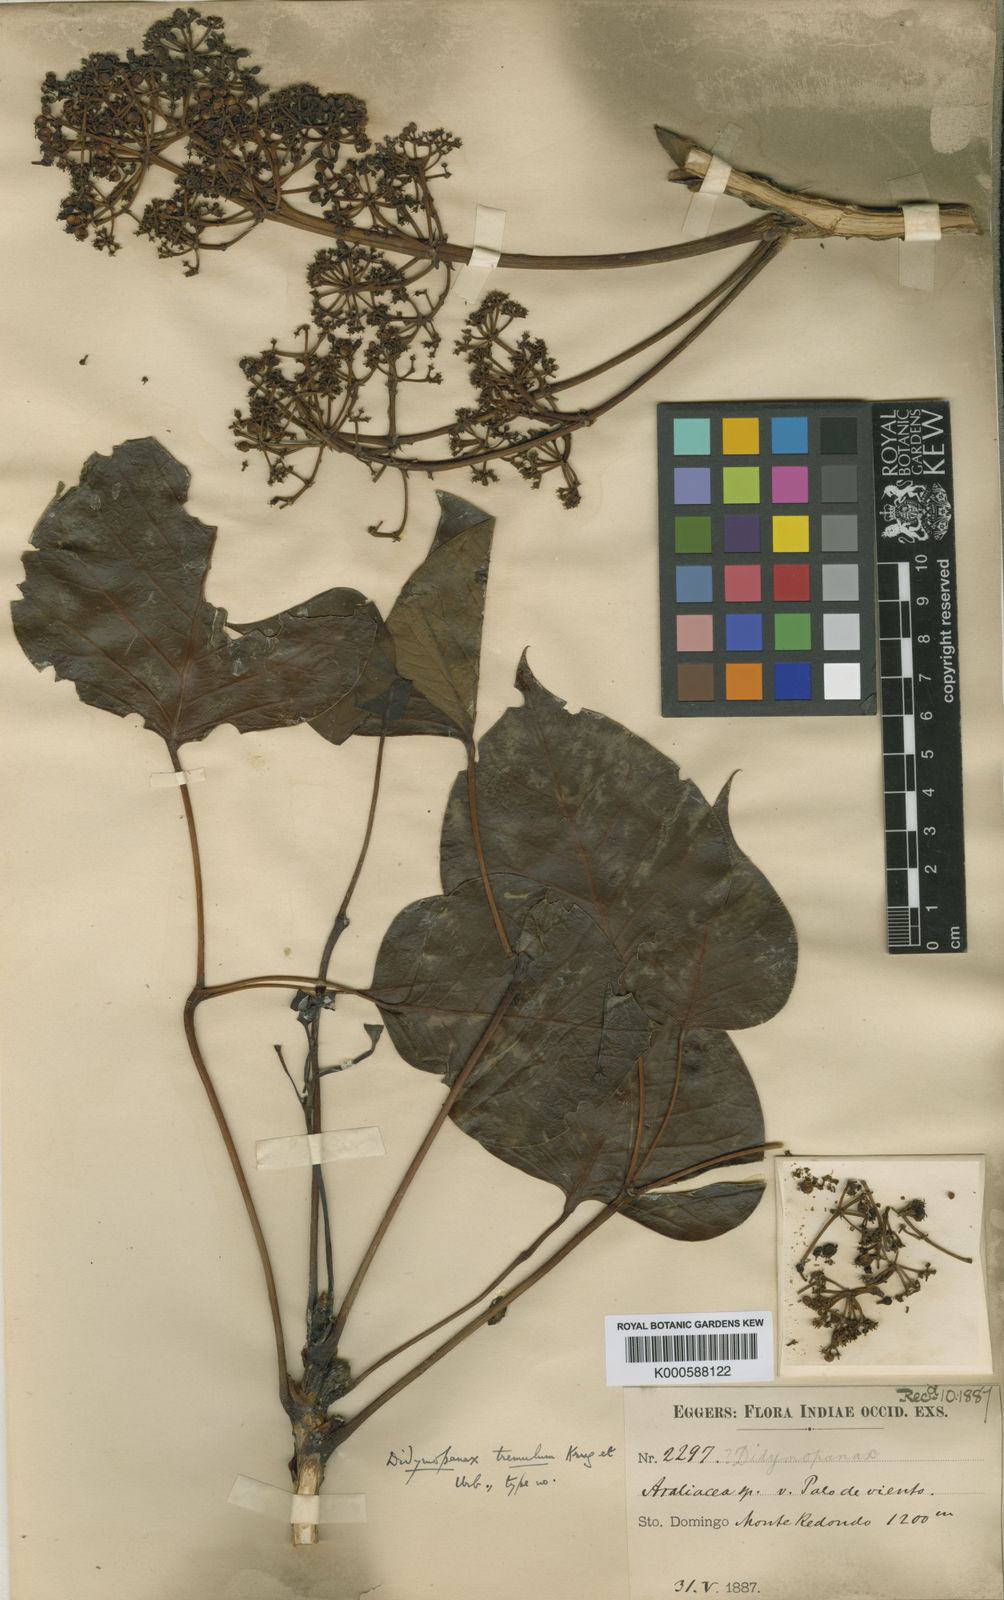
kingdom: Plantae
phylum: Tracheophyta
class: Magnoliopsida
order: Apiales
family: Araliaceae
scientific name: Araliaceae
